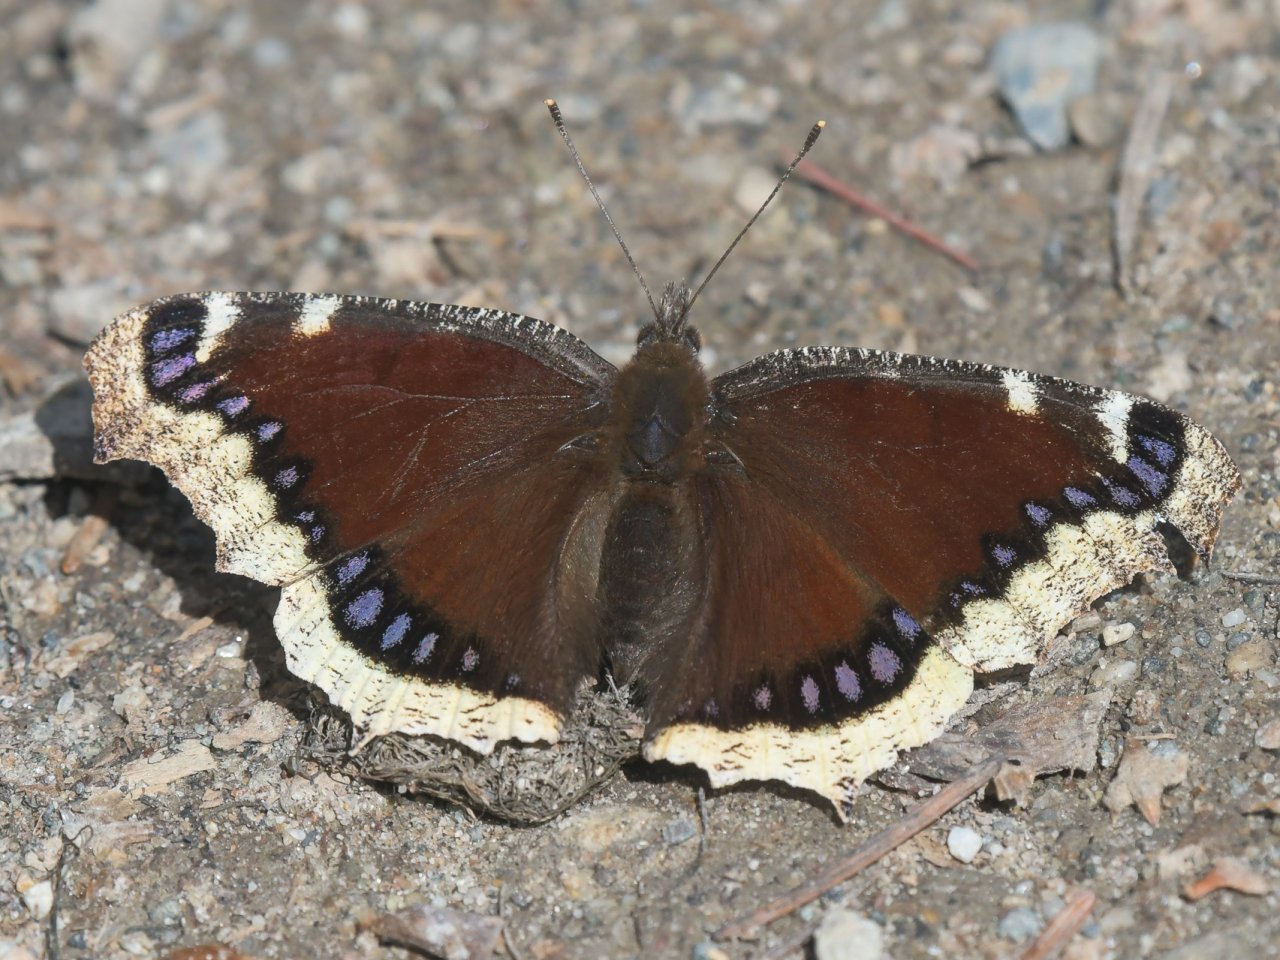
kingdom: Animalia
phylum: Arthropoda
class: Insecta
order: Lepidoptera
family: Nymphalidae
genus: Nymphalis
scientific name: Nymphalis antiopa
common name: Mourning Cloak
